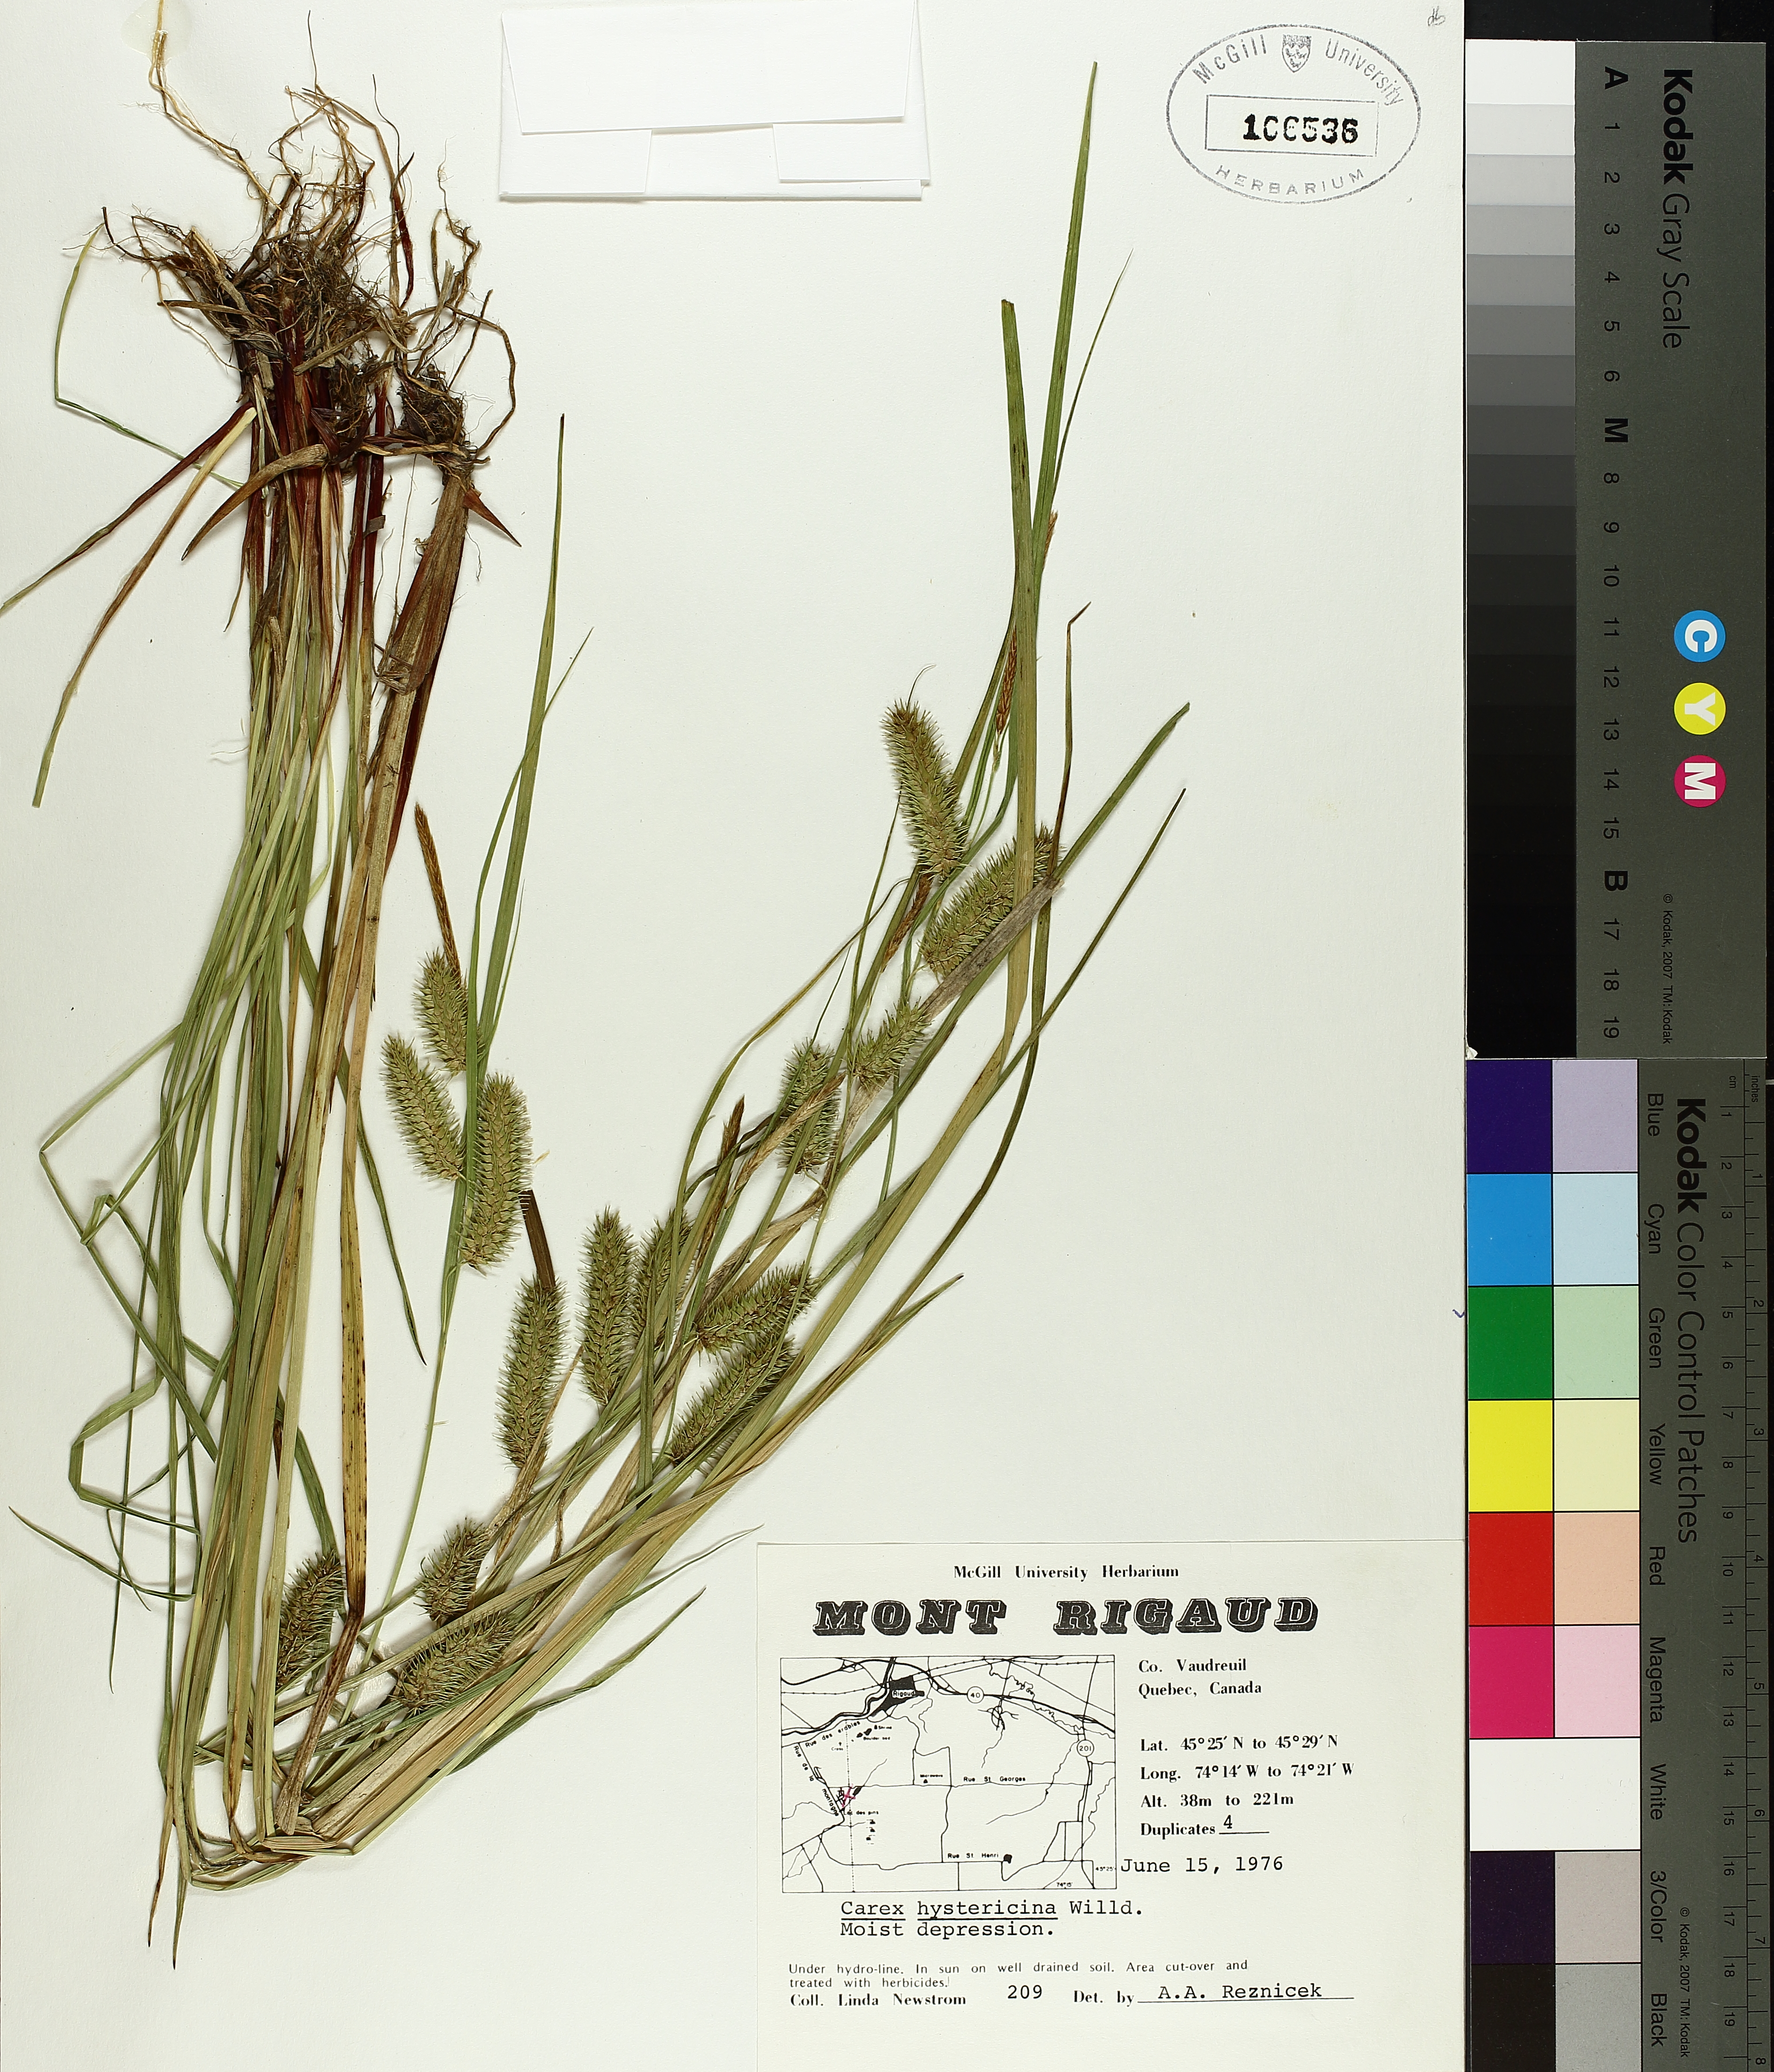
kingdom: Plantae
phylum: Tracheophyta
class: Liliopsida
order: Poales
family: Cyperaceae
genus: Carex
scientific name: Carex hystericina
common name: Bottlebrush sedge
